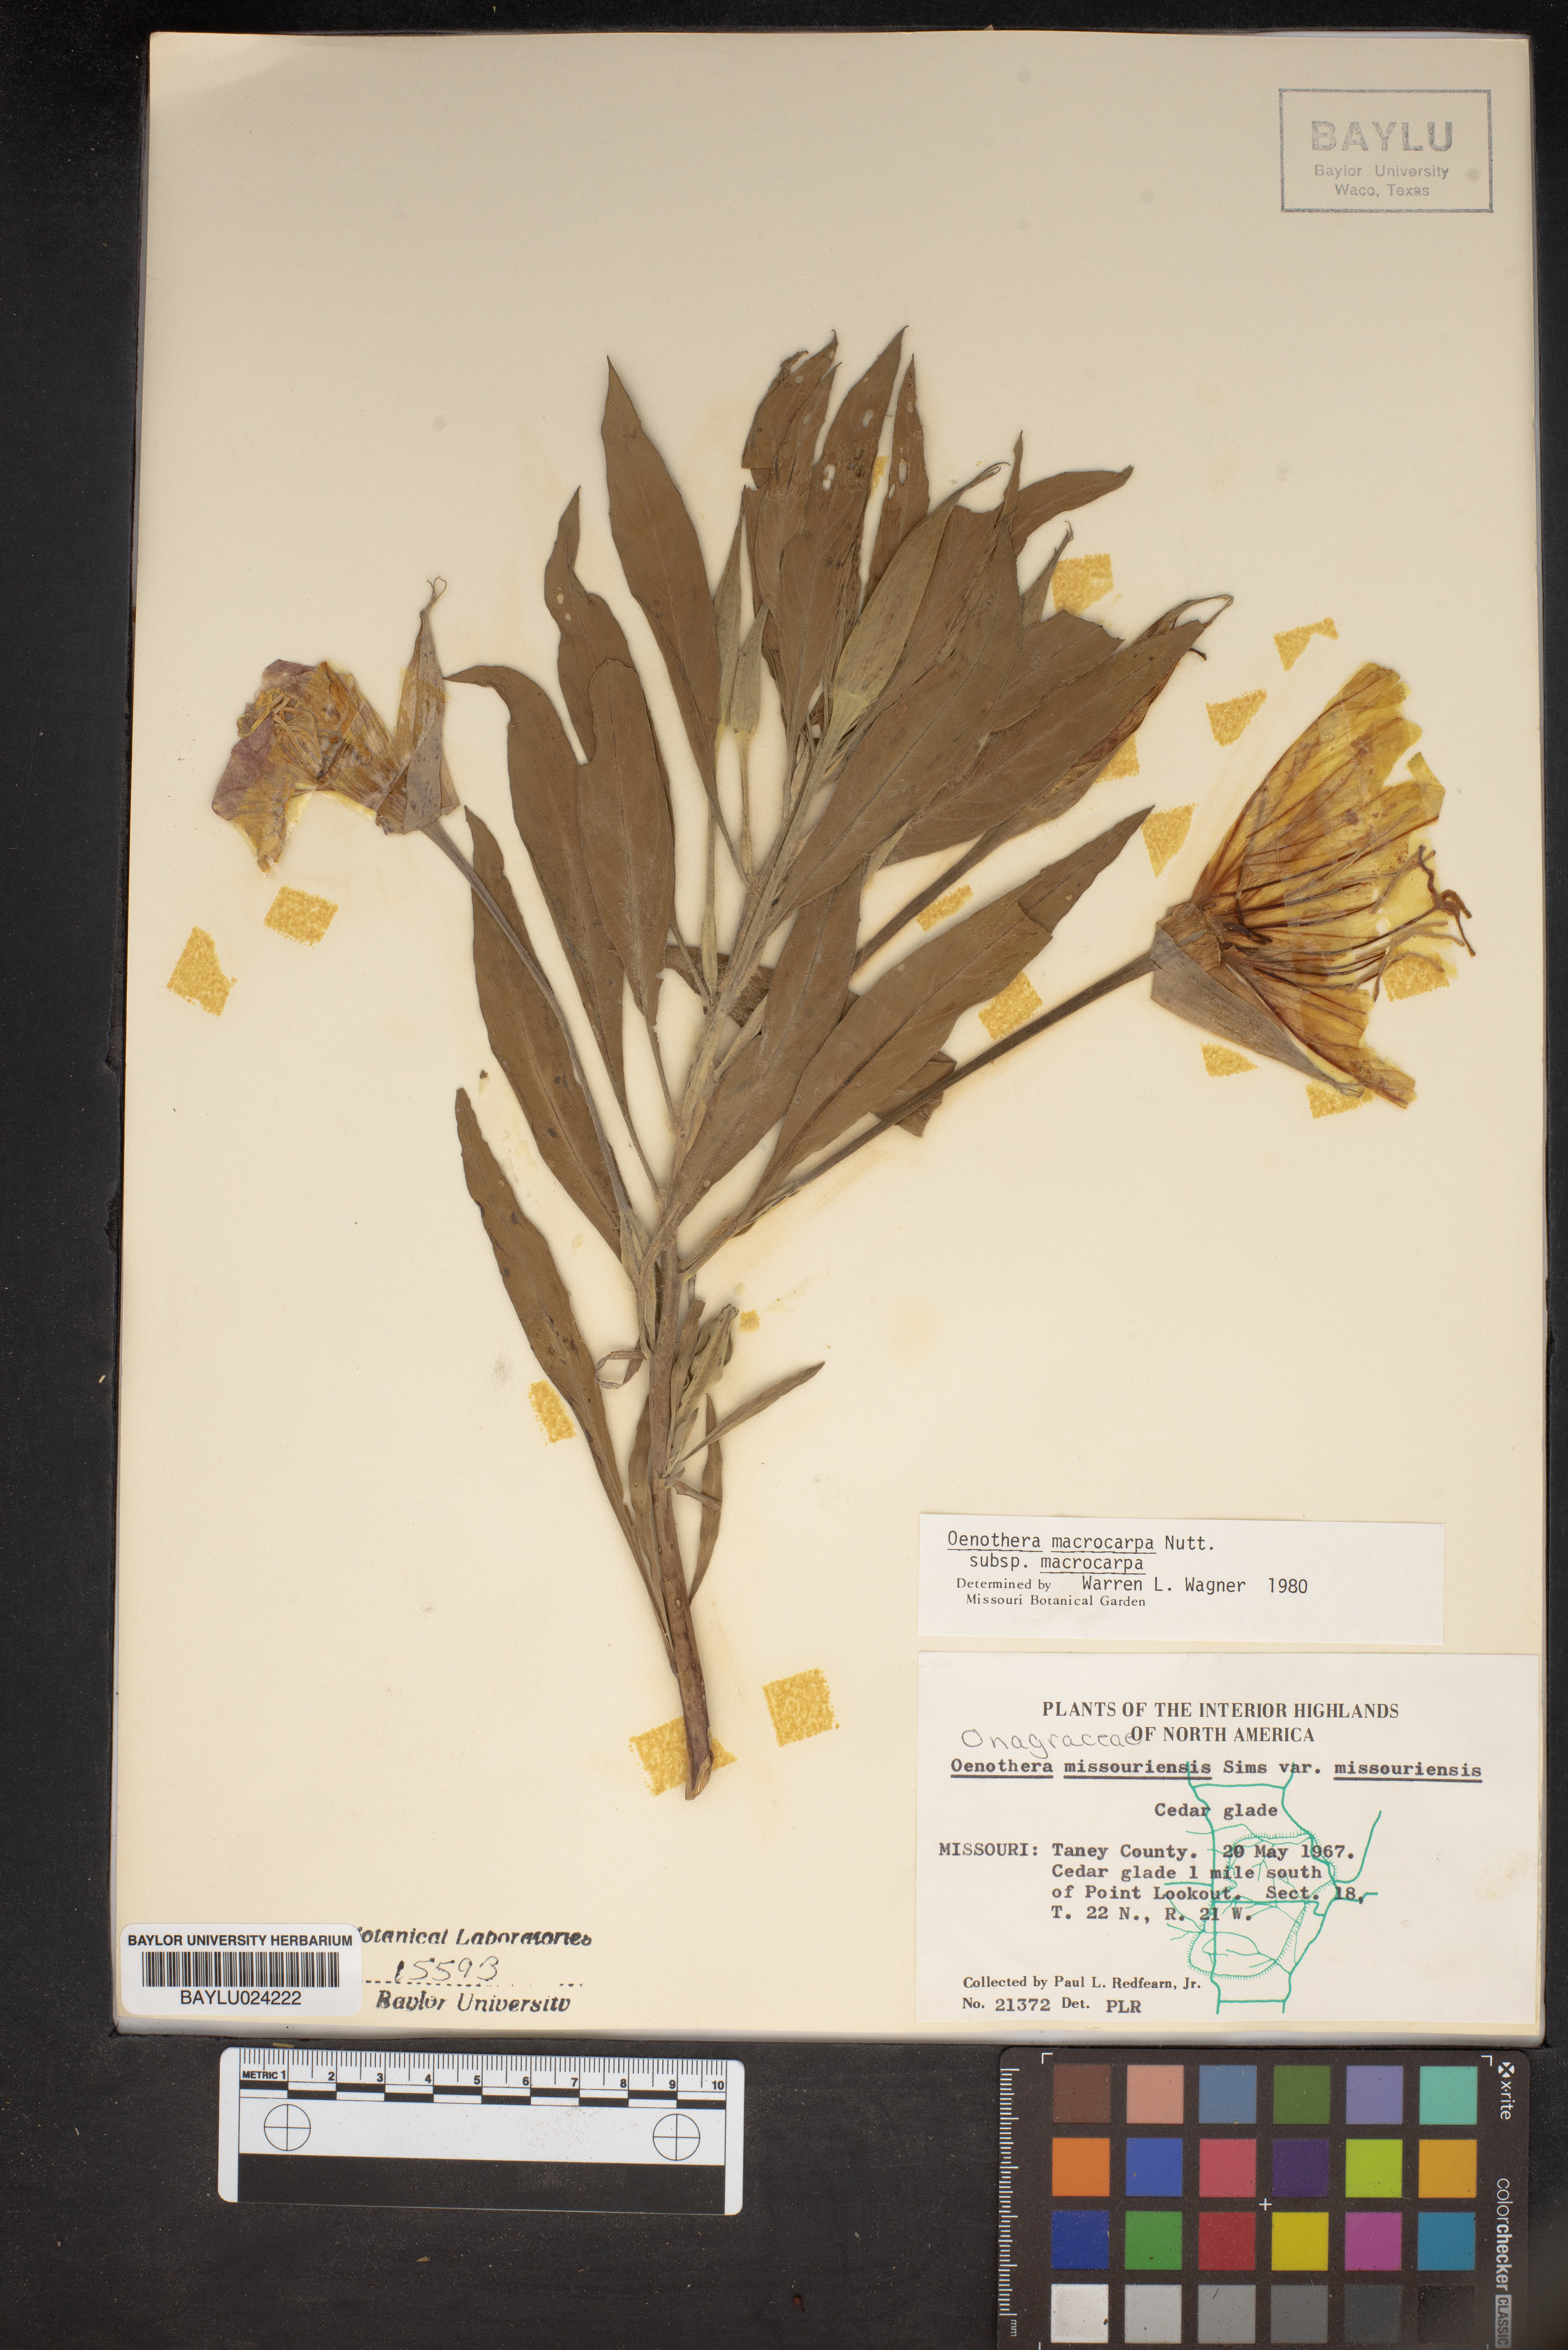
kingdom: Plantae
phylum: Tracheophyta
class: Magnoliopsida
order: Myrtales
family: Onagraceae
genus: Oenothera
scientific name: Oenothera macrocarpa
